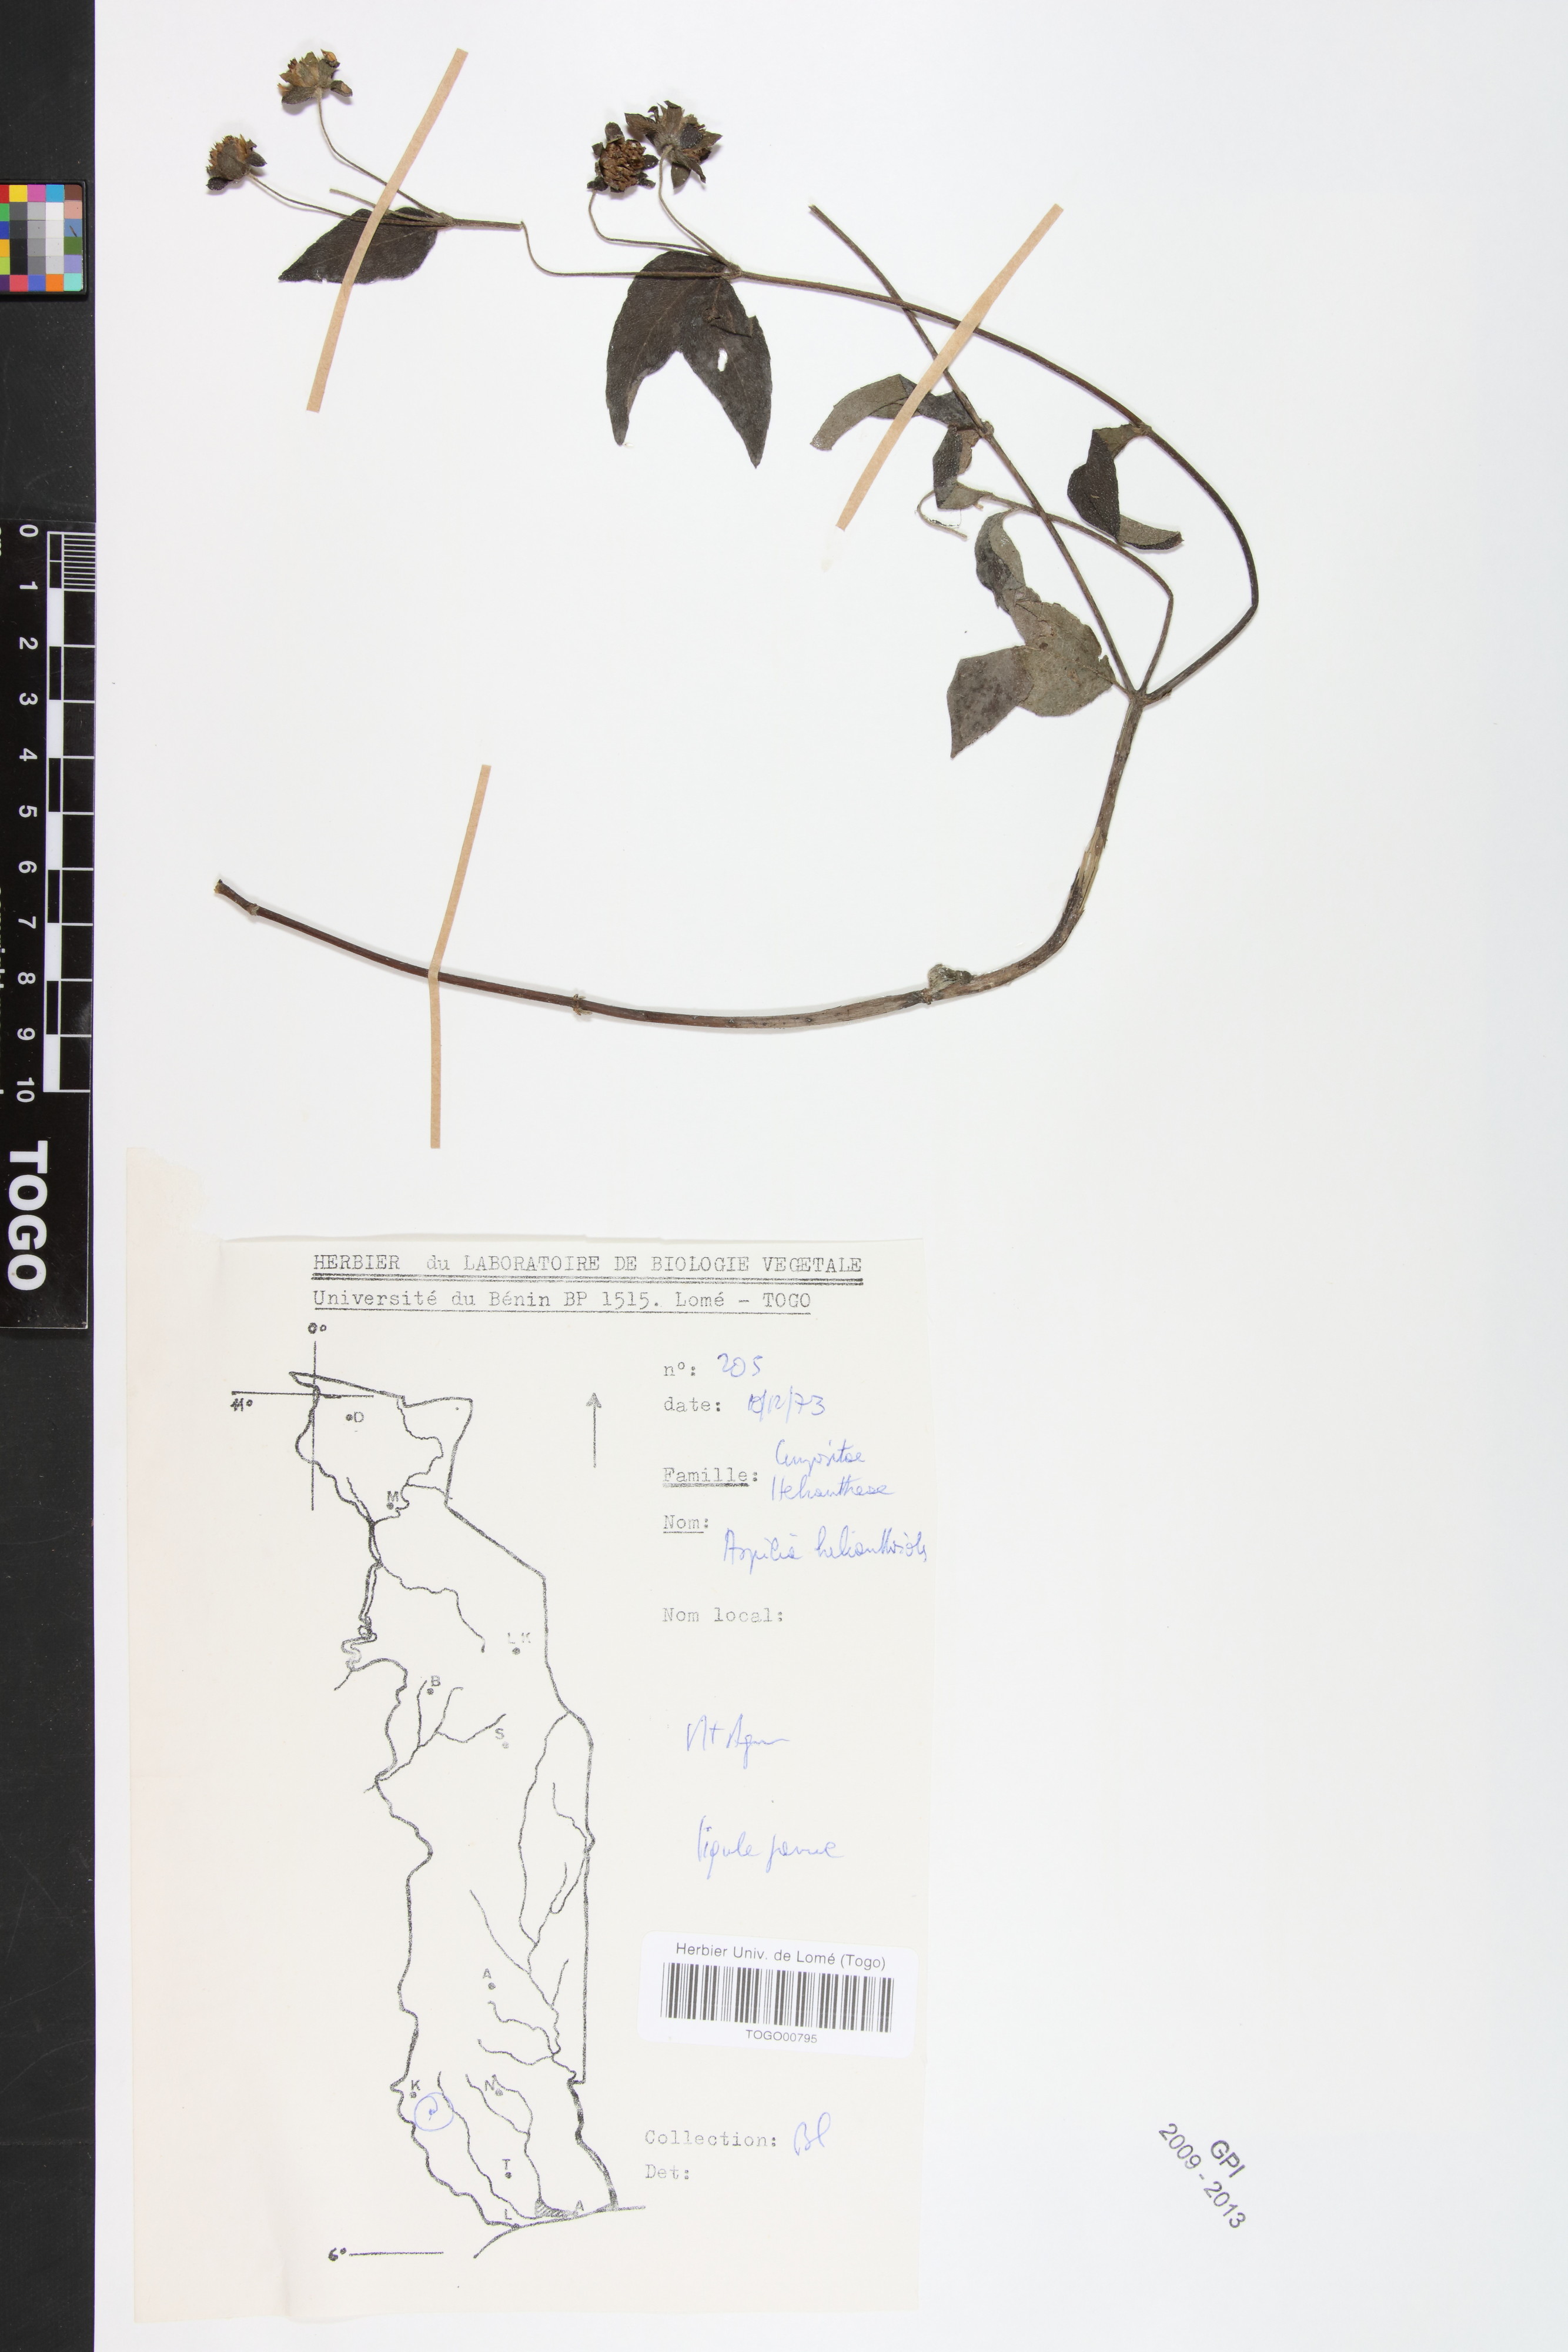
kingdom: Plantae
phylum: Tracheophyta
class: Magnoliopsida
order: Asterales
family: Asteraceae
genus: Aspilia
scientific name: Aspilia helianthoides
